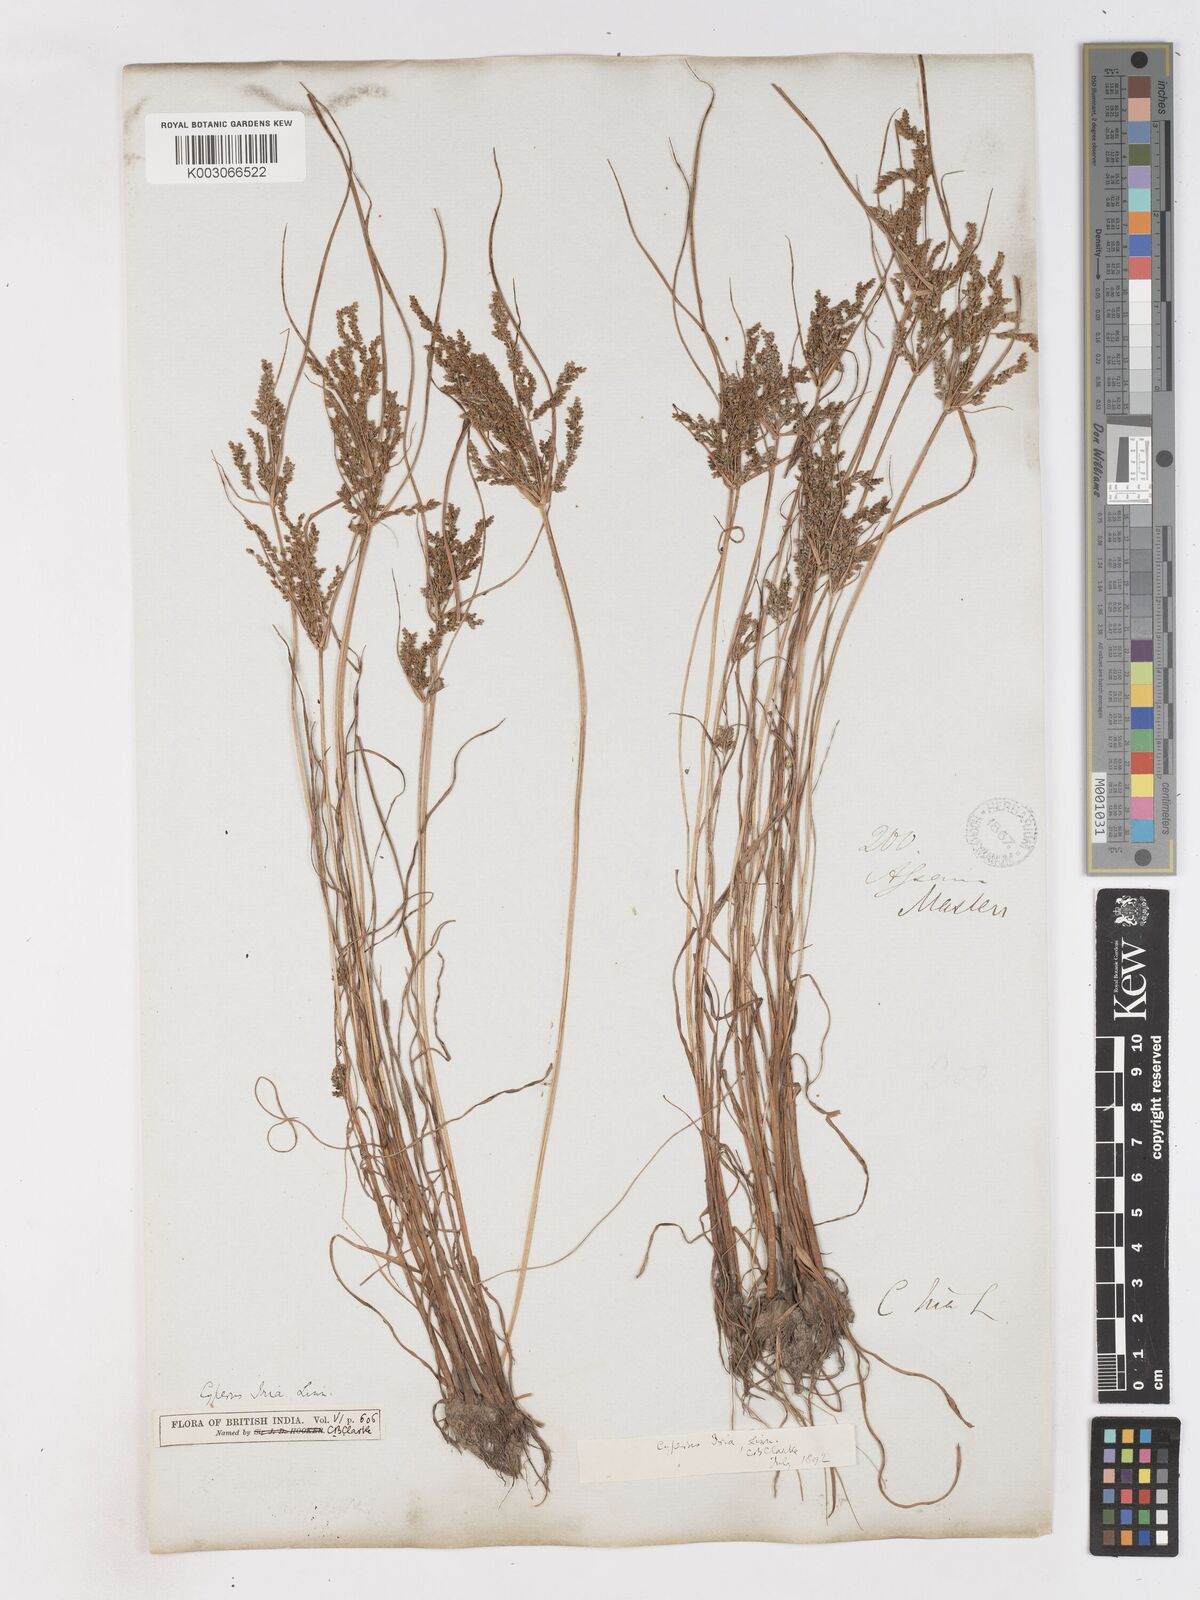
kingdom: Plantae
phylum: Tracheophyta
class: Liliopsida
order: Poales
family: Cyperaceae
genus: Cyperus
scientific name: Cyperus iria
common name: Ricefield flatsedge
